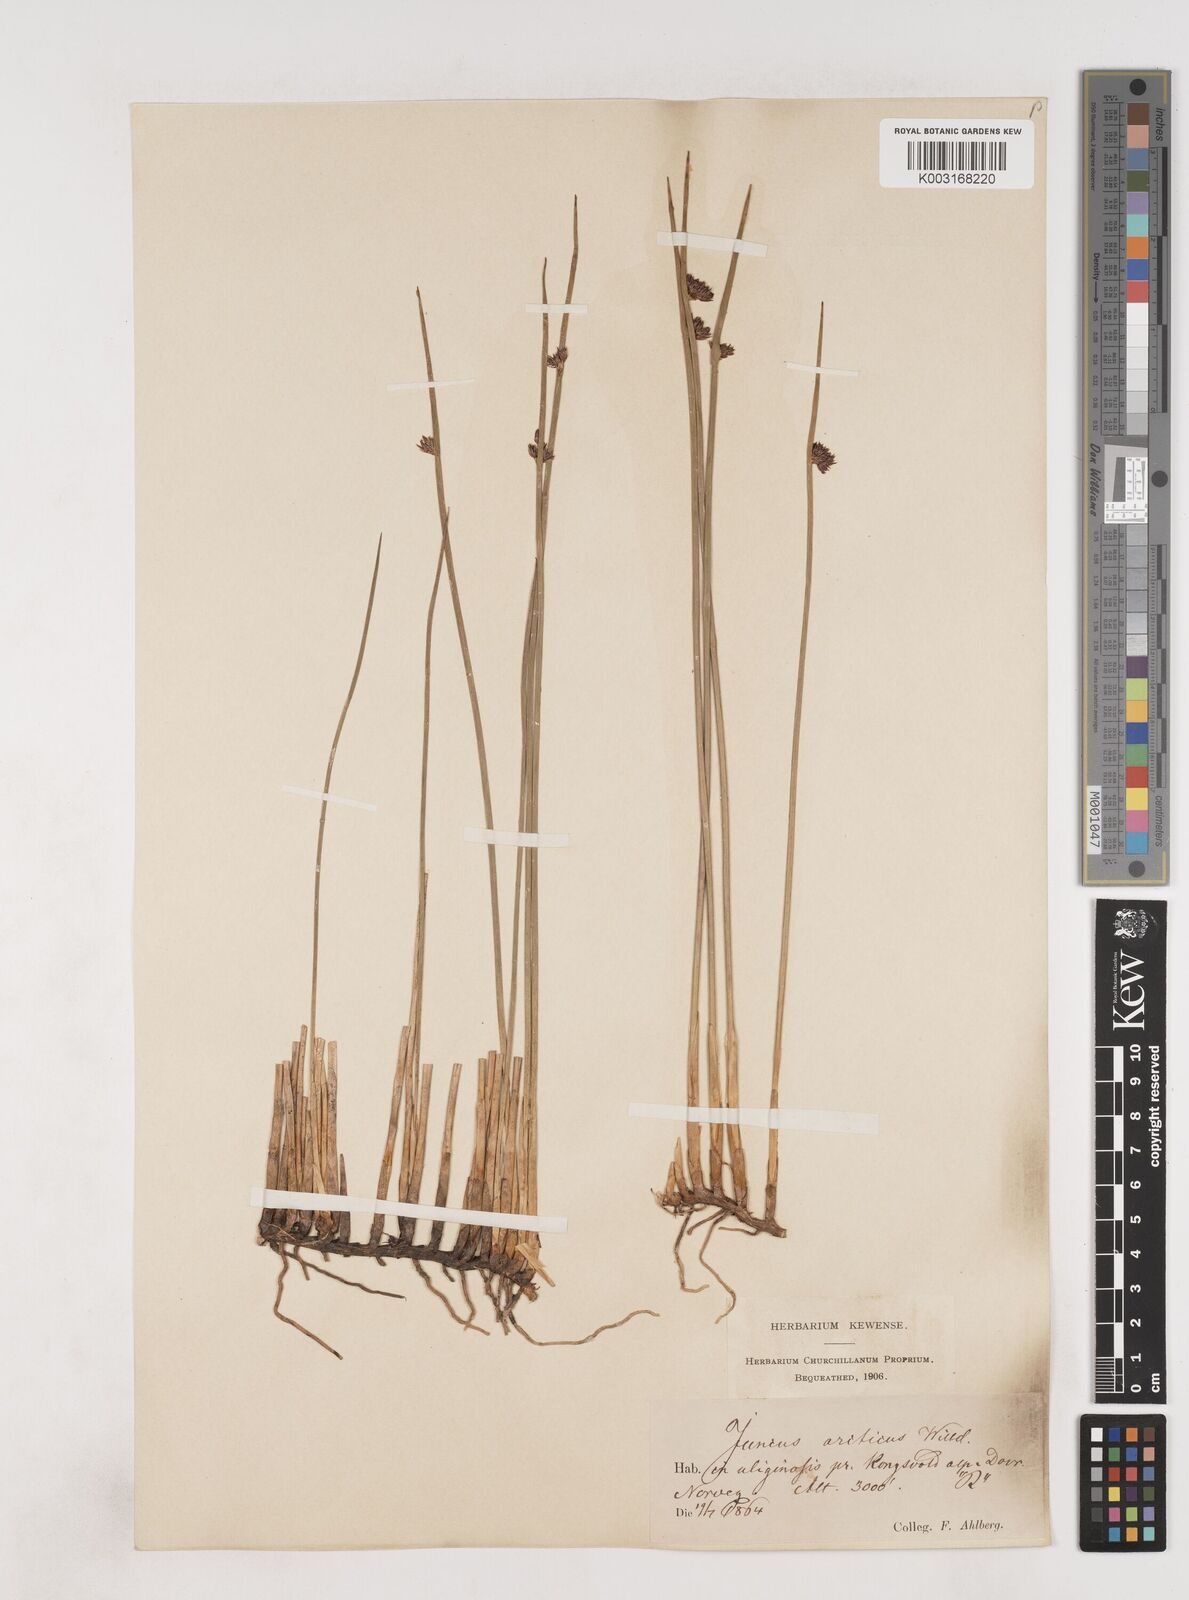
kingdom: Plantae
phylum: Tracheophyta
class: Liliopsida
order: Poales
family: Juncaceae
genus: Juncus
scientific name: Juncus arcticus
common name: Arctic rush
